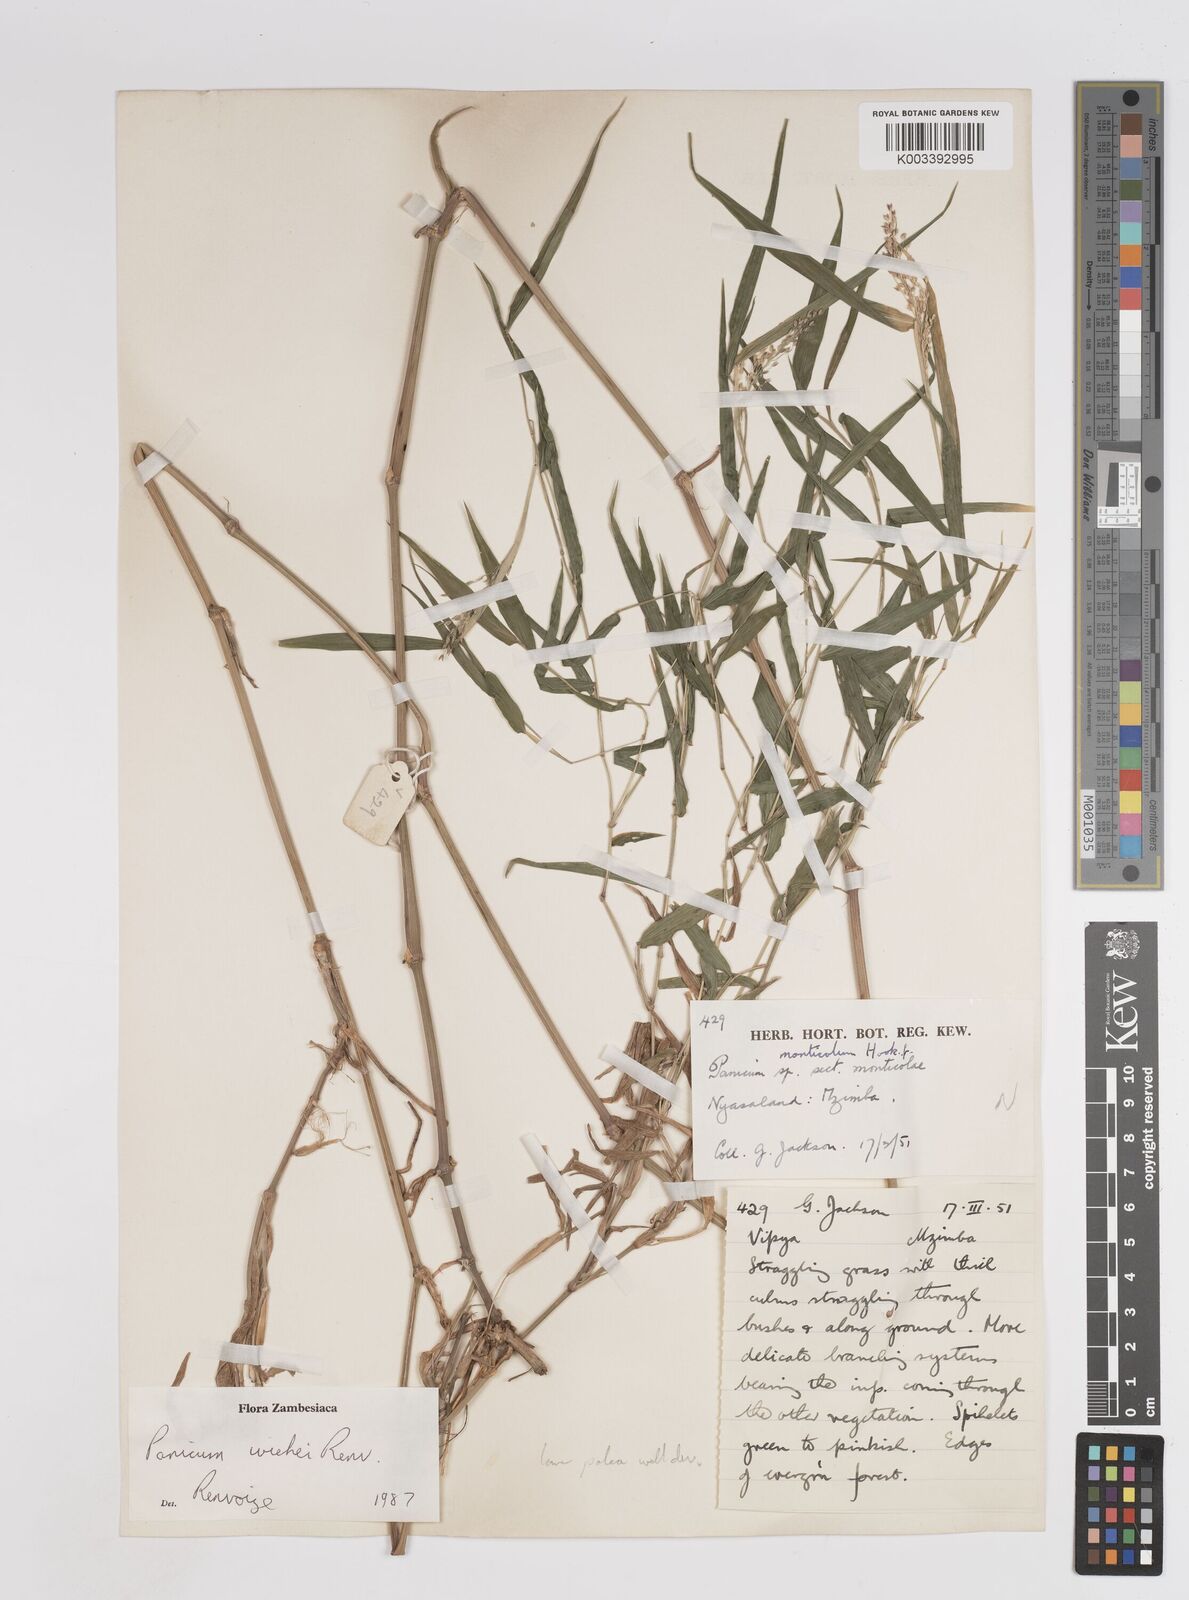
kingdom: Plantae
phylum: Tracheophyta
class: Liliopsida
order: Poales
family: Poaceae
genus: Panicum
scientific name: Panicum wiehei
